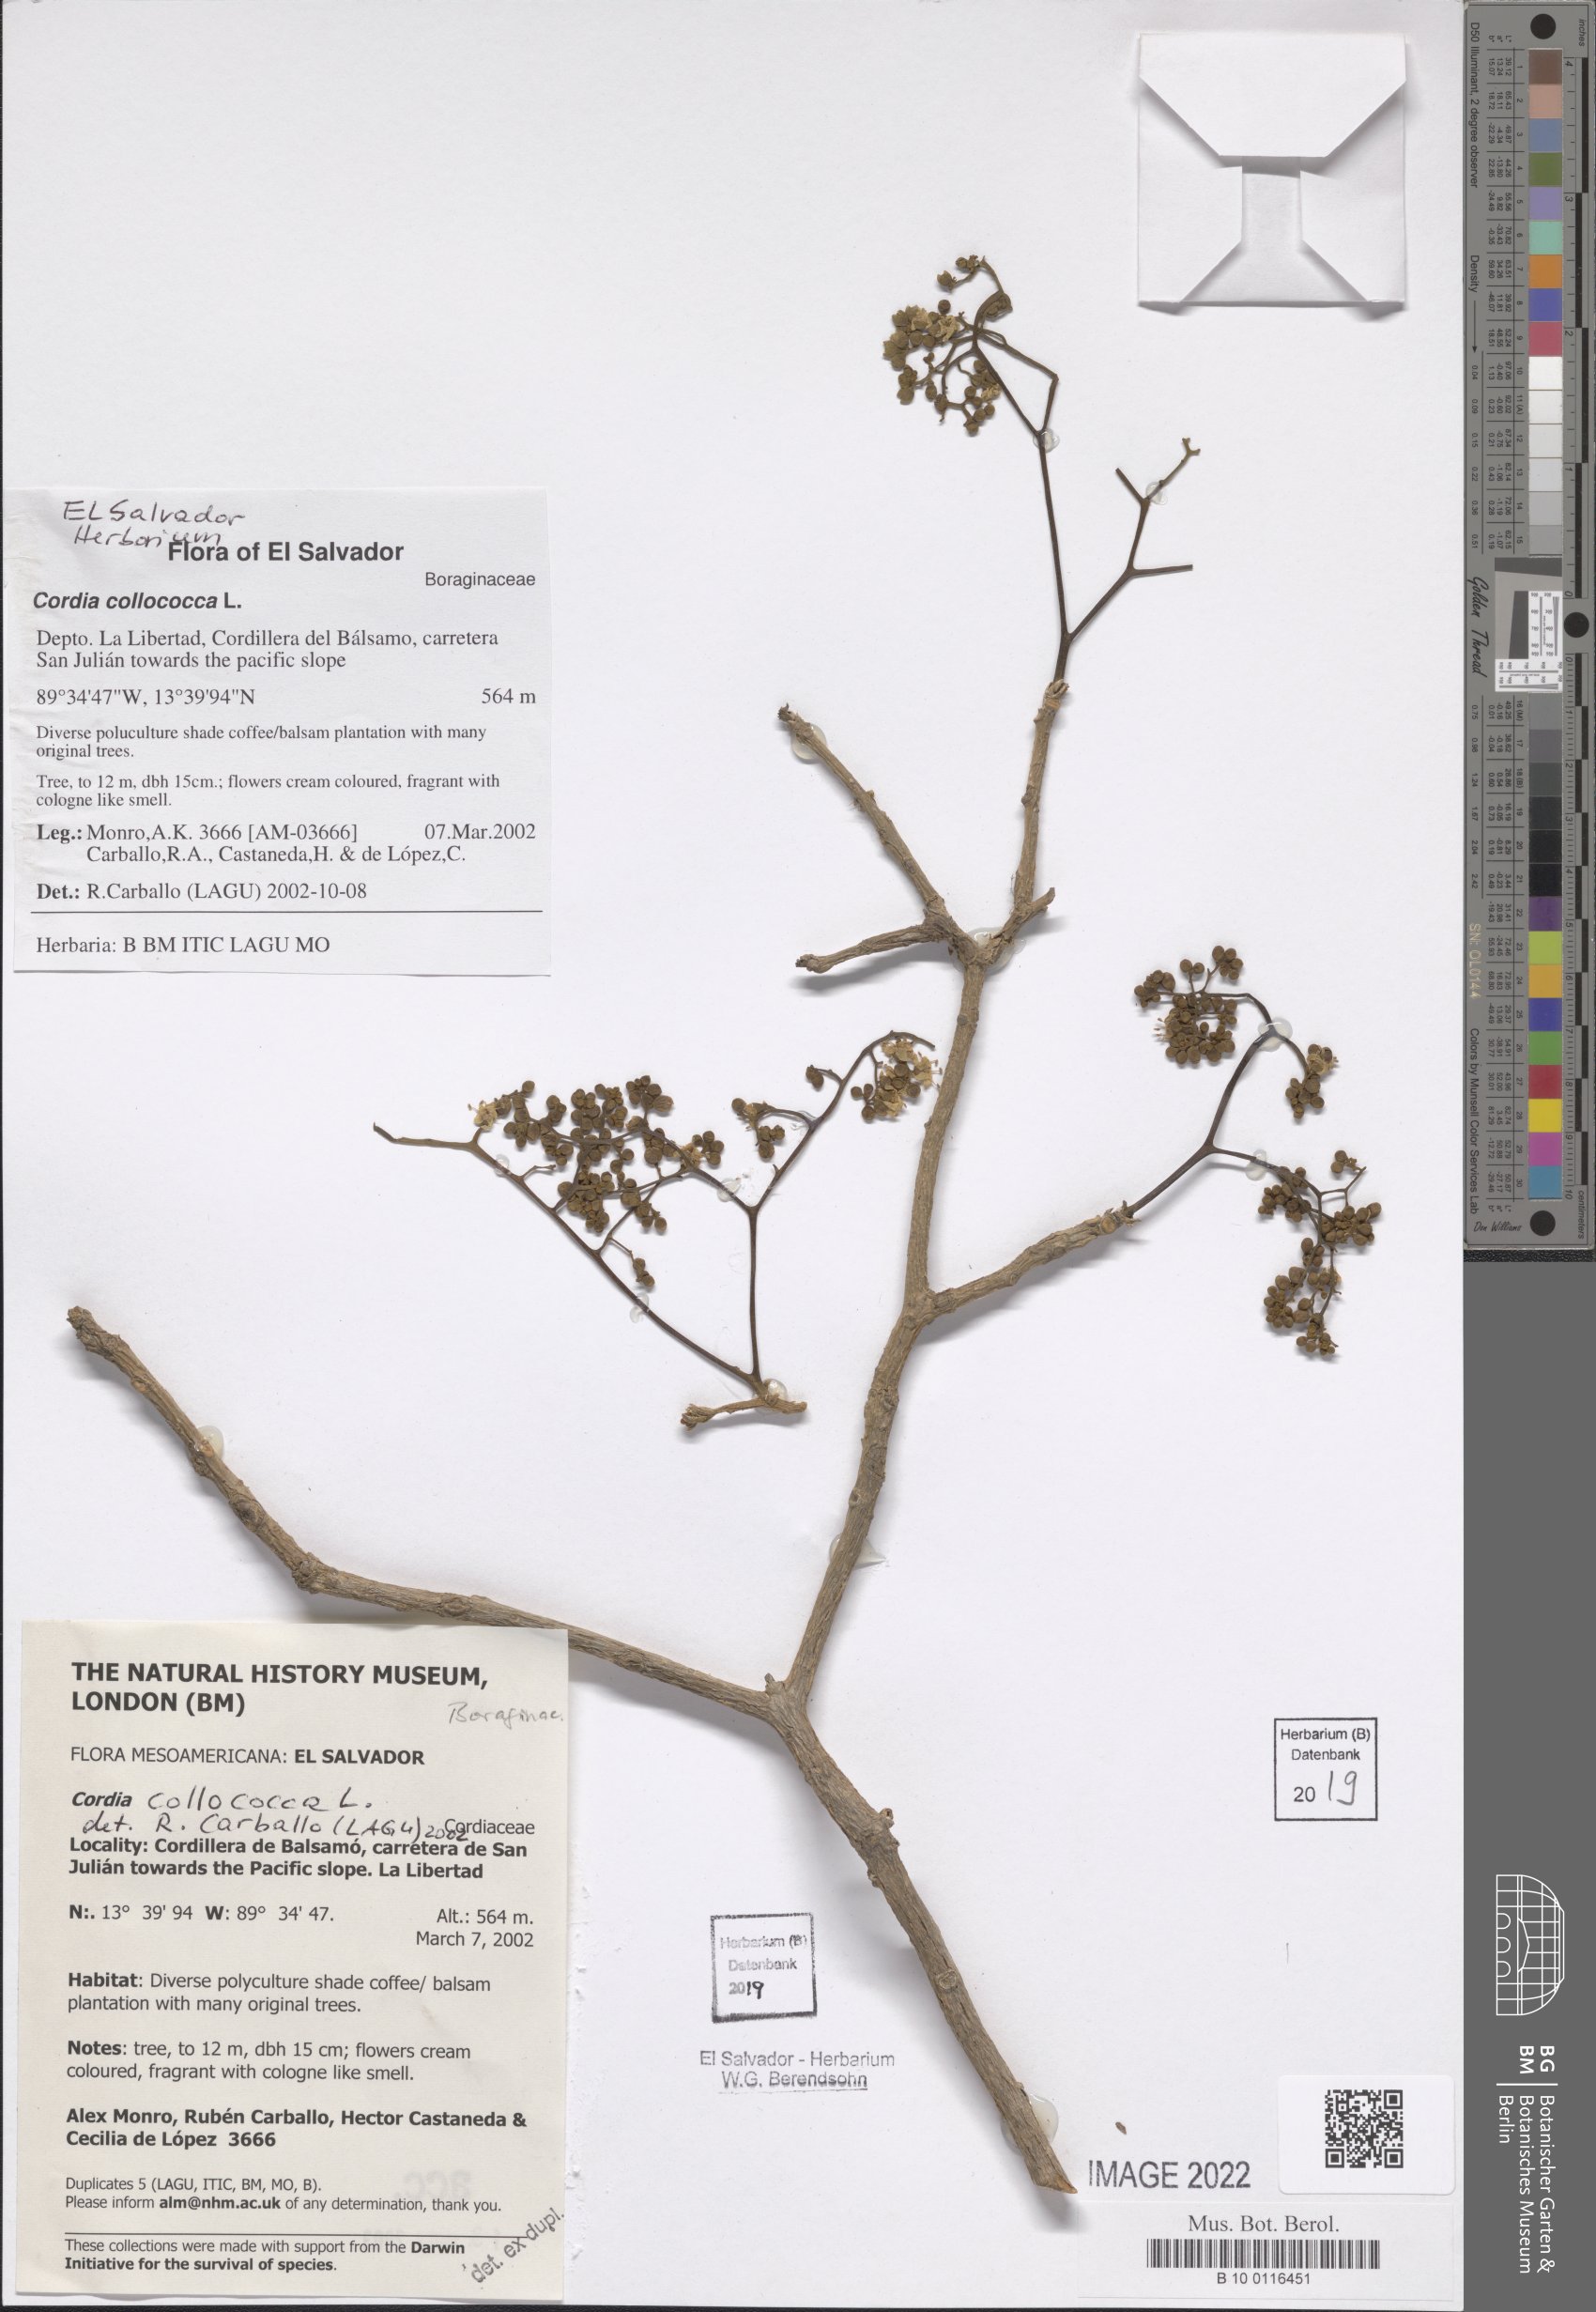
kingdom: Plantae
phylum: Tracheophyta
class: Magnoliopsida
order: Boraginales
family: Cordiaceae
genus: Cordia
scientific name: Cordia collococca
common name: Clammy cherry
